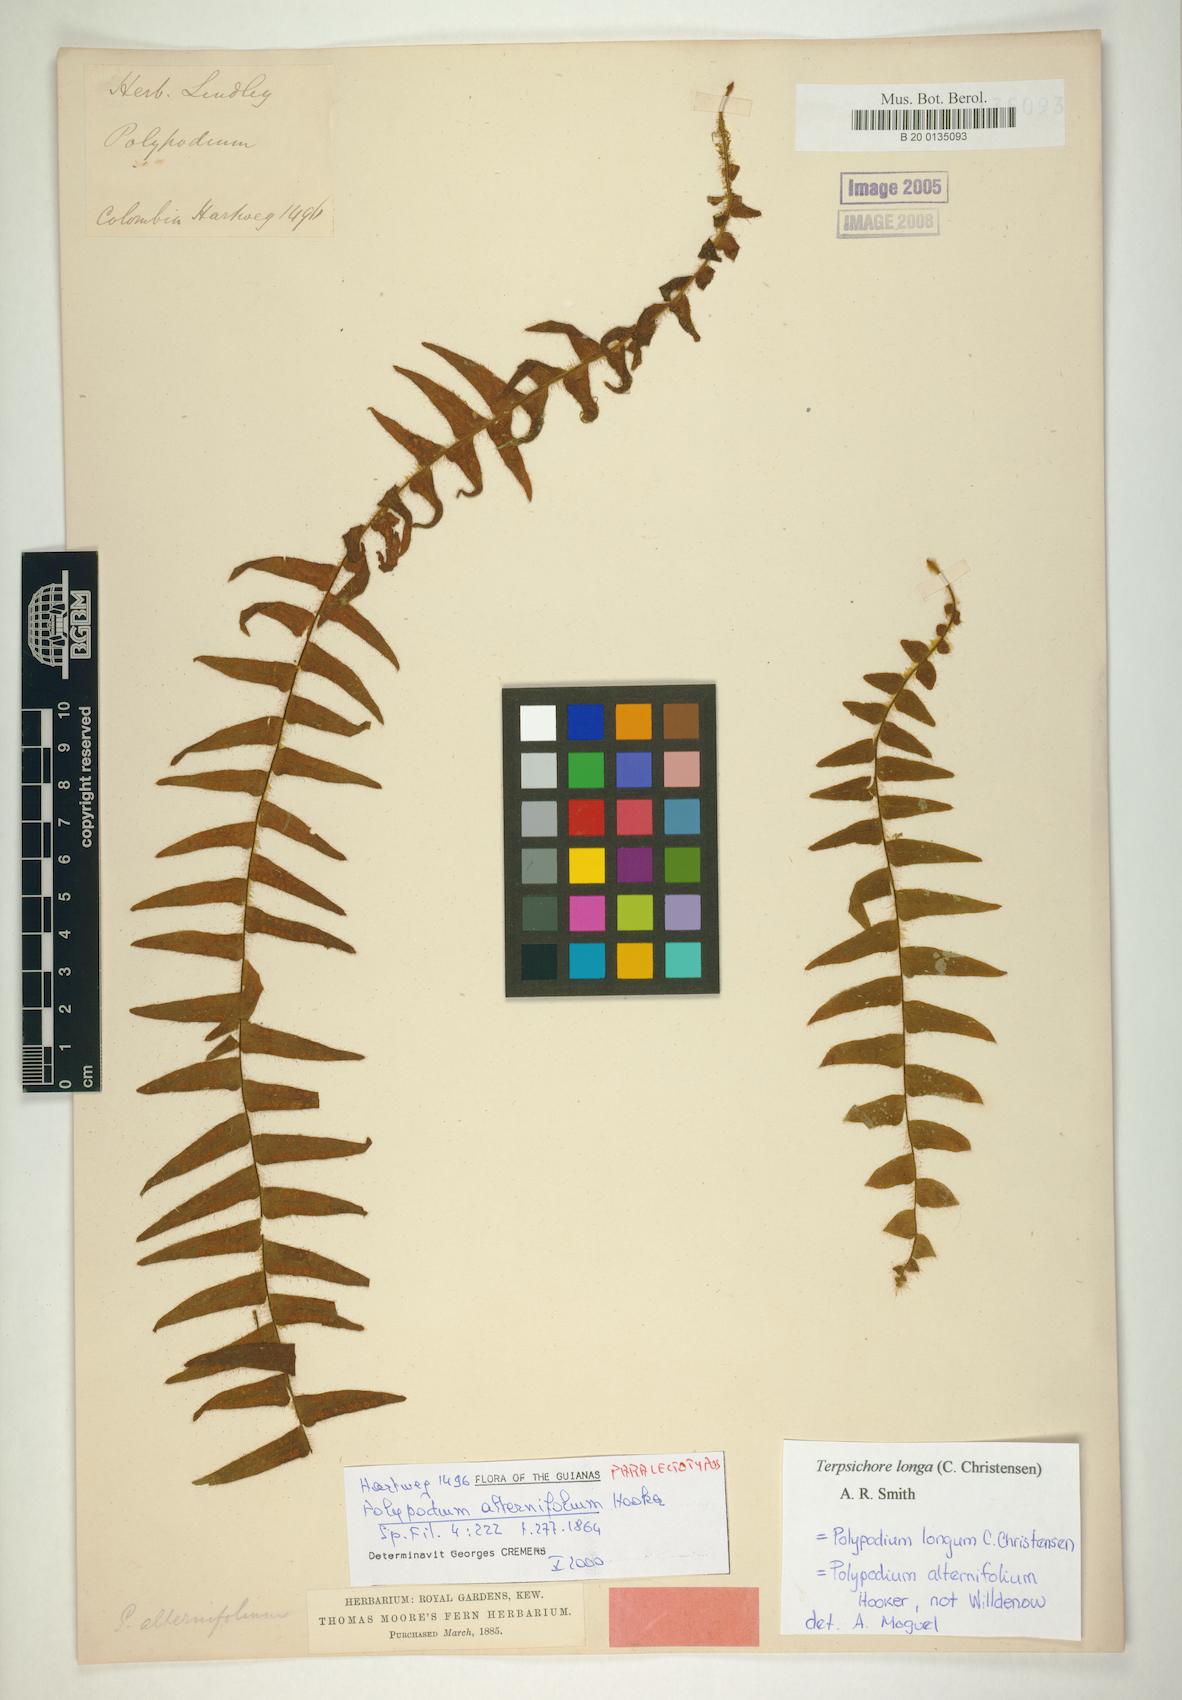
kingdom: Plantae
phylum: Tracheophyta
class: Polypodiopsida
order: Polypodiales
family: Polypodiaceae
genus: Alansmia
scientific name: Alansmia longa
